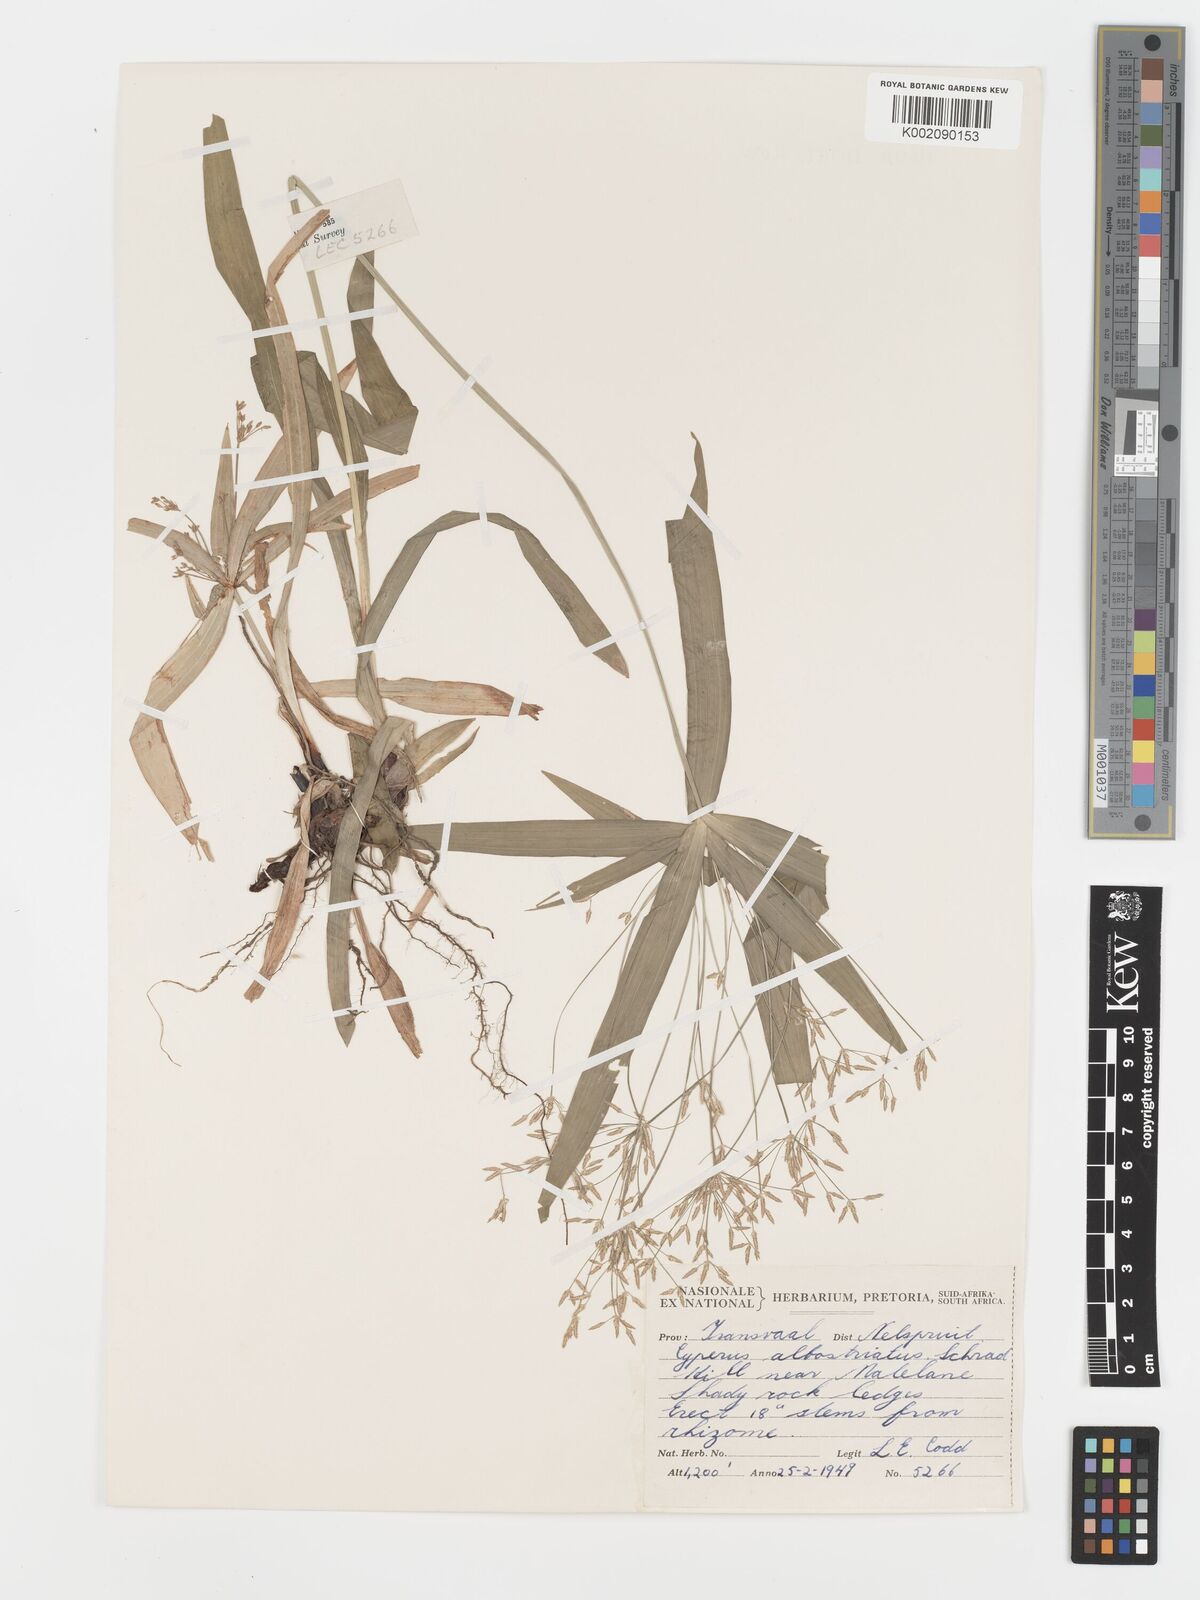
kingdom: Plantae
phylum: Tracheophyta
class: Liliopsida
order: Poales
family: Cyperaceae
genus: Cyperus
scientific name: Cyperus albostriatus
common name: Dwarf umbrella-grass
